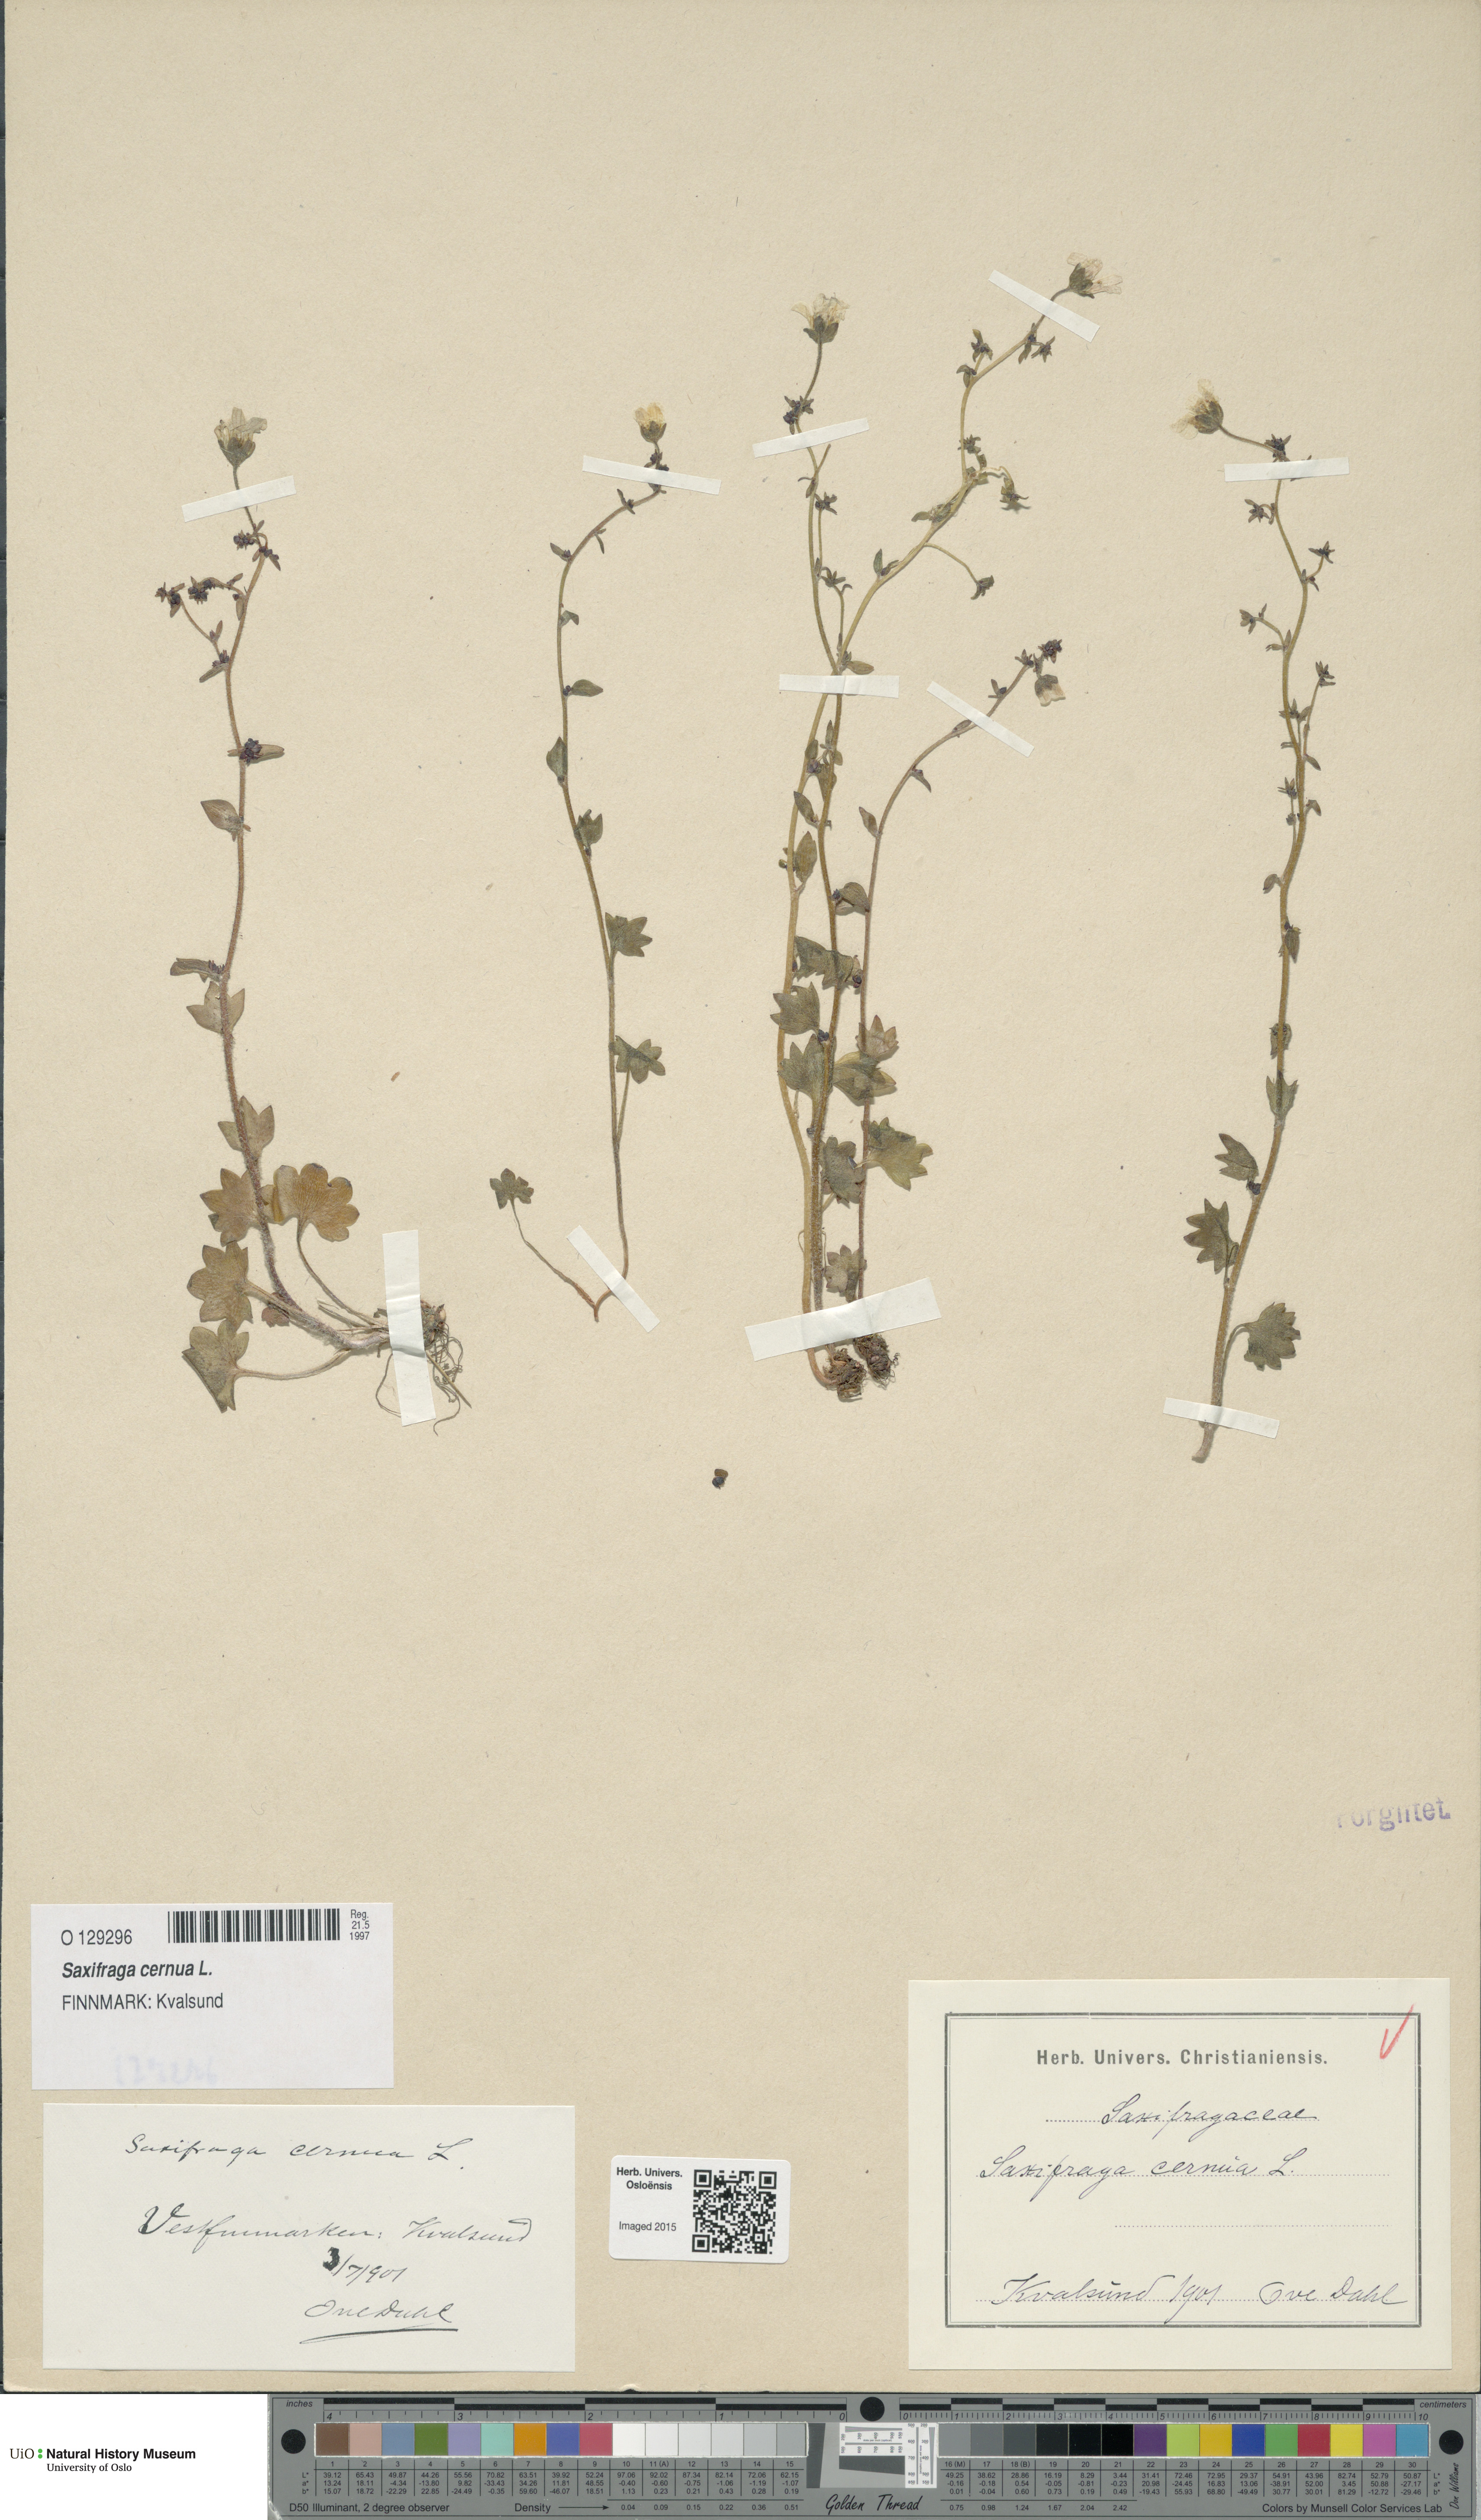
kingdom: Plantae
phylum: Tracheophyta
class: Magnoliopsida
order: Saxifragales
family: Saxifragaceae
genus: Saxifraga
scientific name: Saxifraga cernua
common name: Drooping saxifrage
